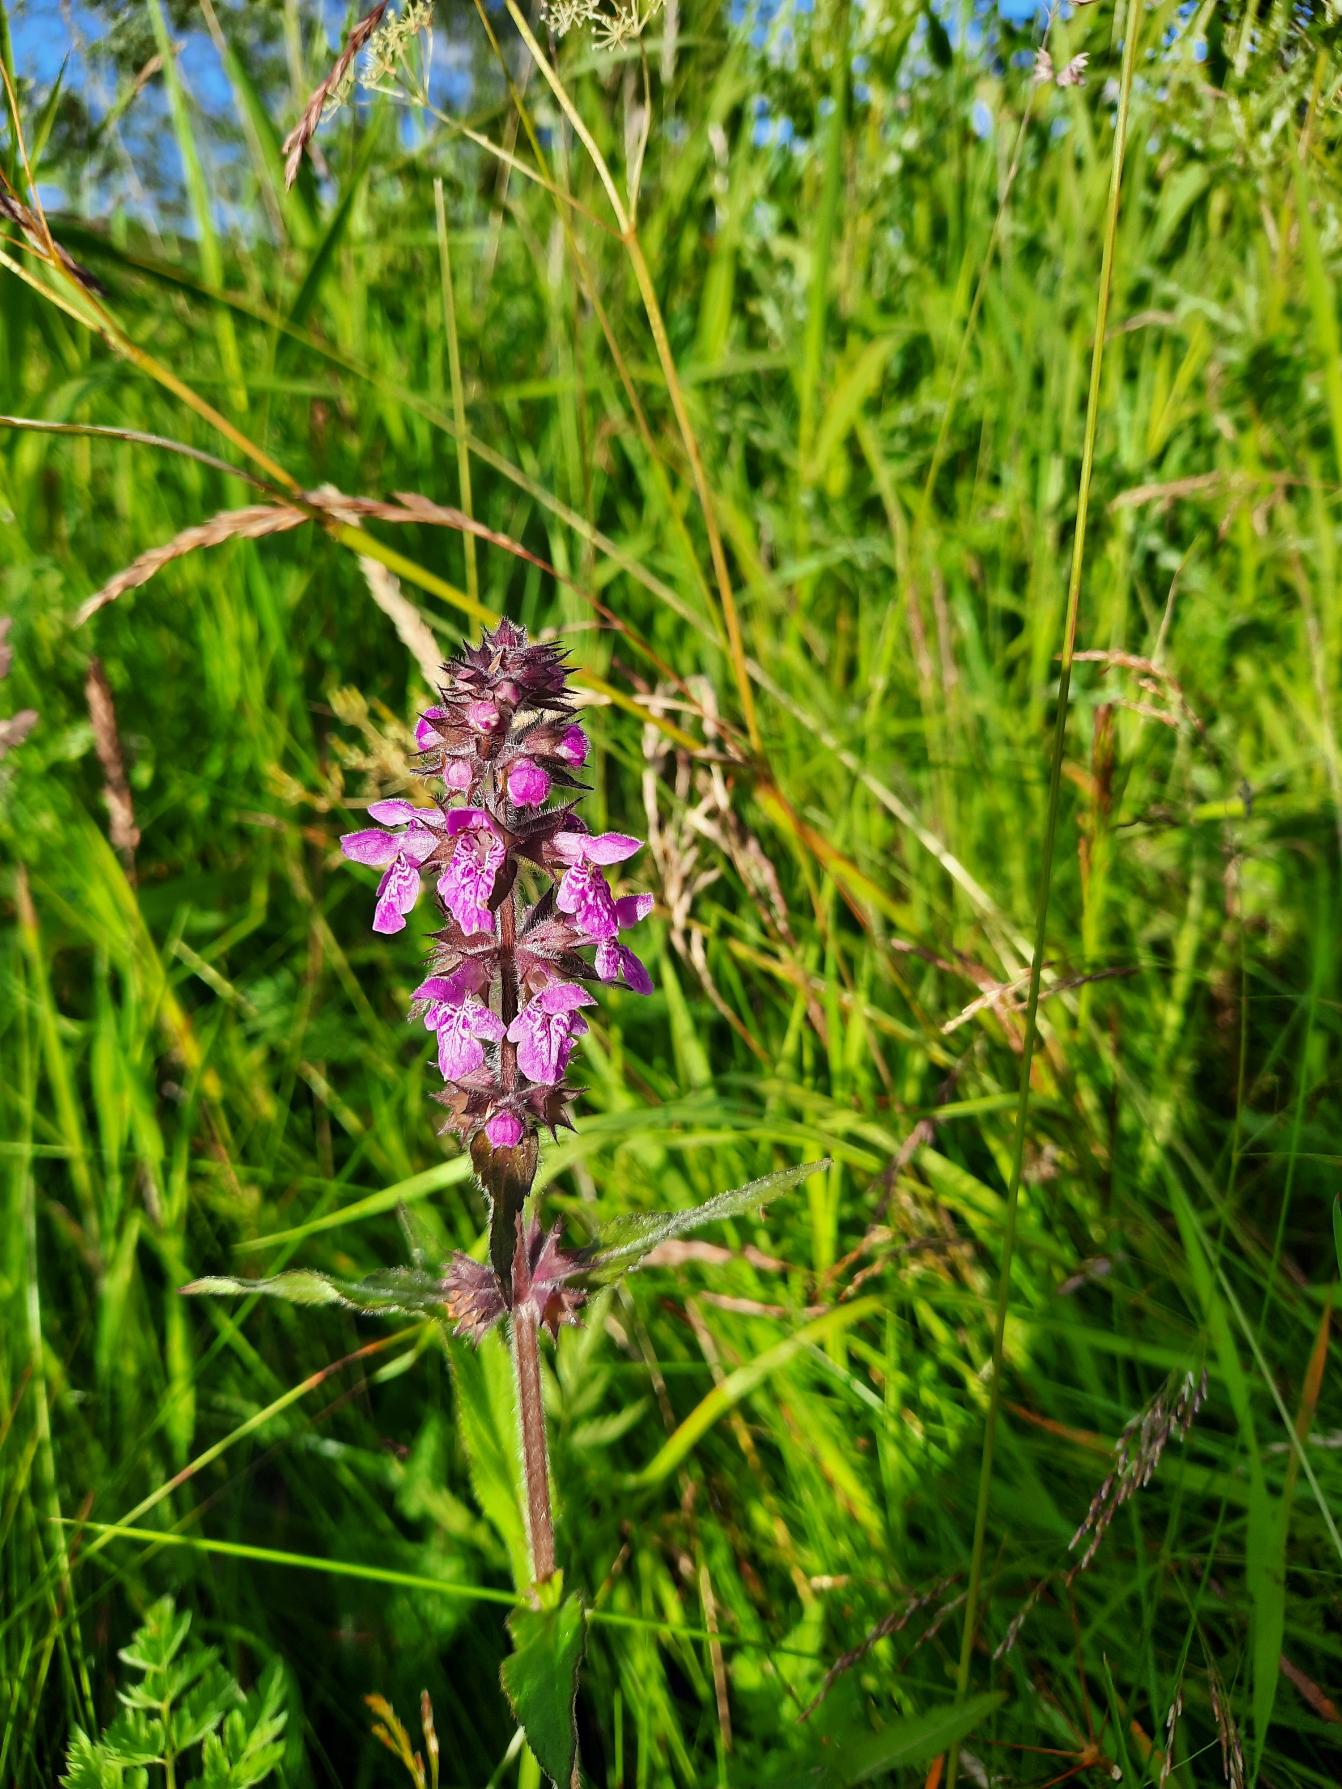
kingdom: Plantae
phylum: Tracheophyta
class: Magnoliopsida
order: Lamiales
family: Lamiaceae
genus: Stachys
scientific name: Stachys palustris
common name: Kær-galtetand
